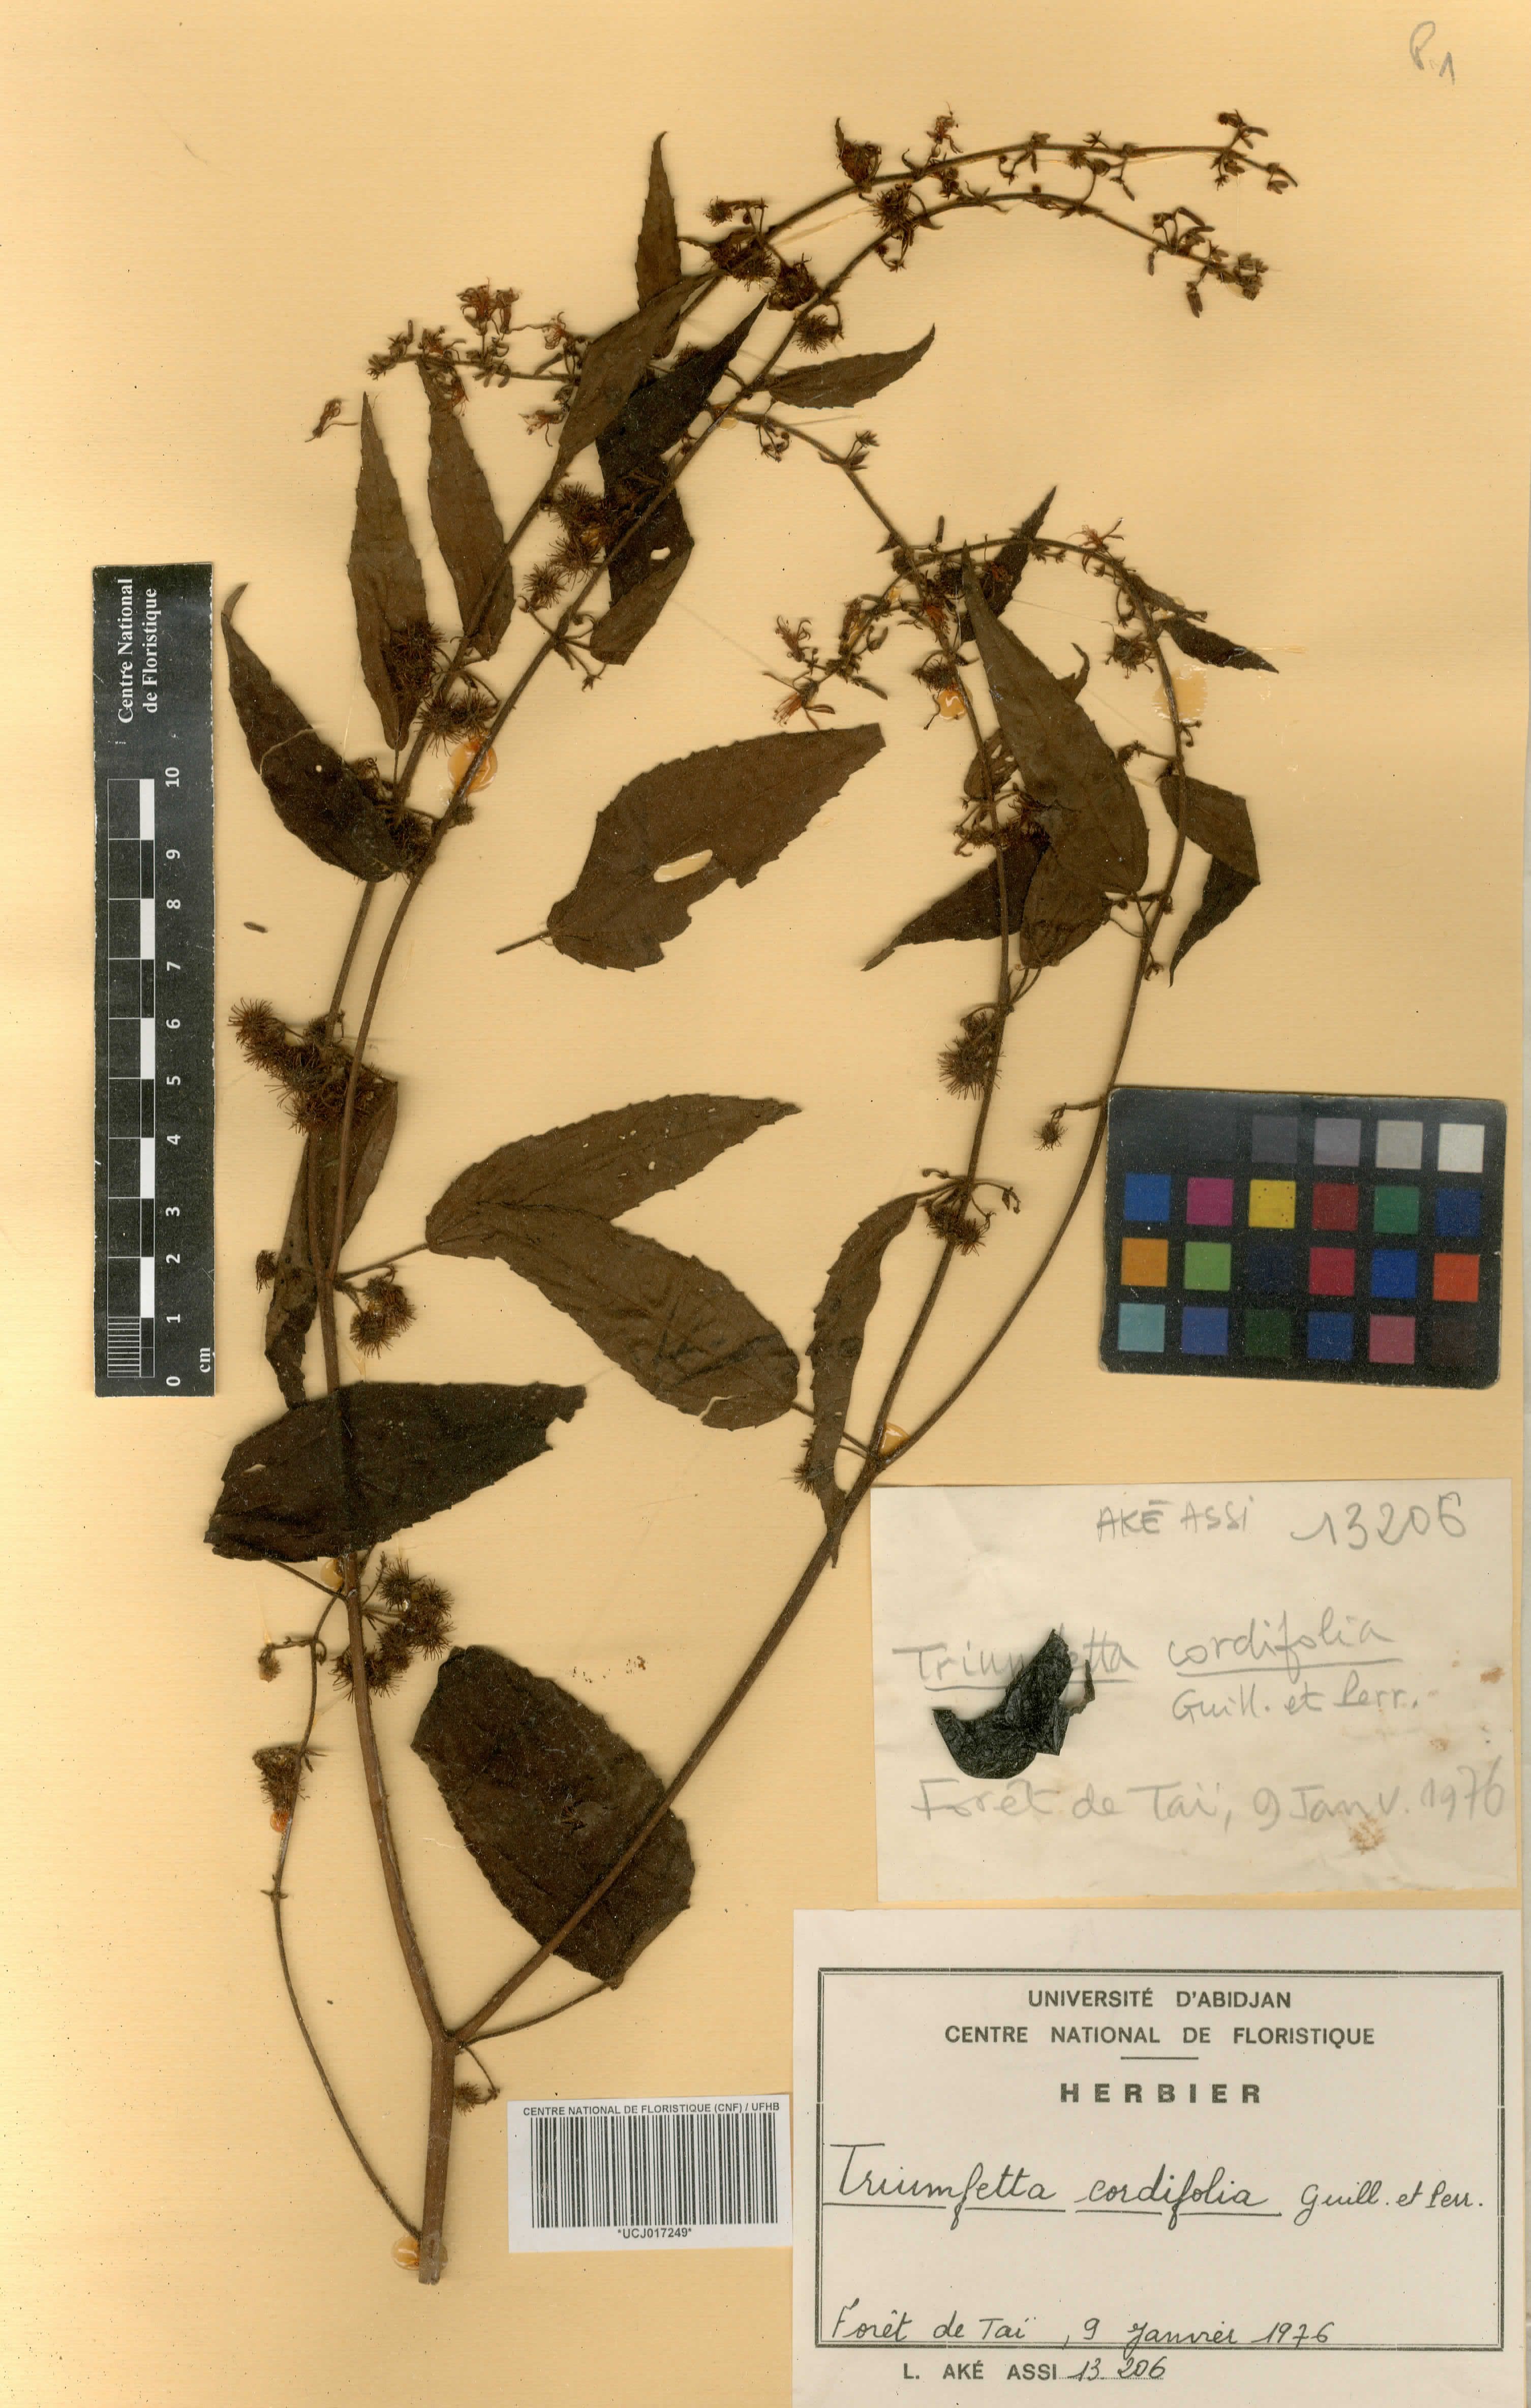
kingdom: Plantae
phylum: Tracheophyta
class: Magnoliopsida
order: Malvales
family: Malvaceae
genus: Triumfetta
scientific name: Triumfetta cordifolia
